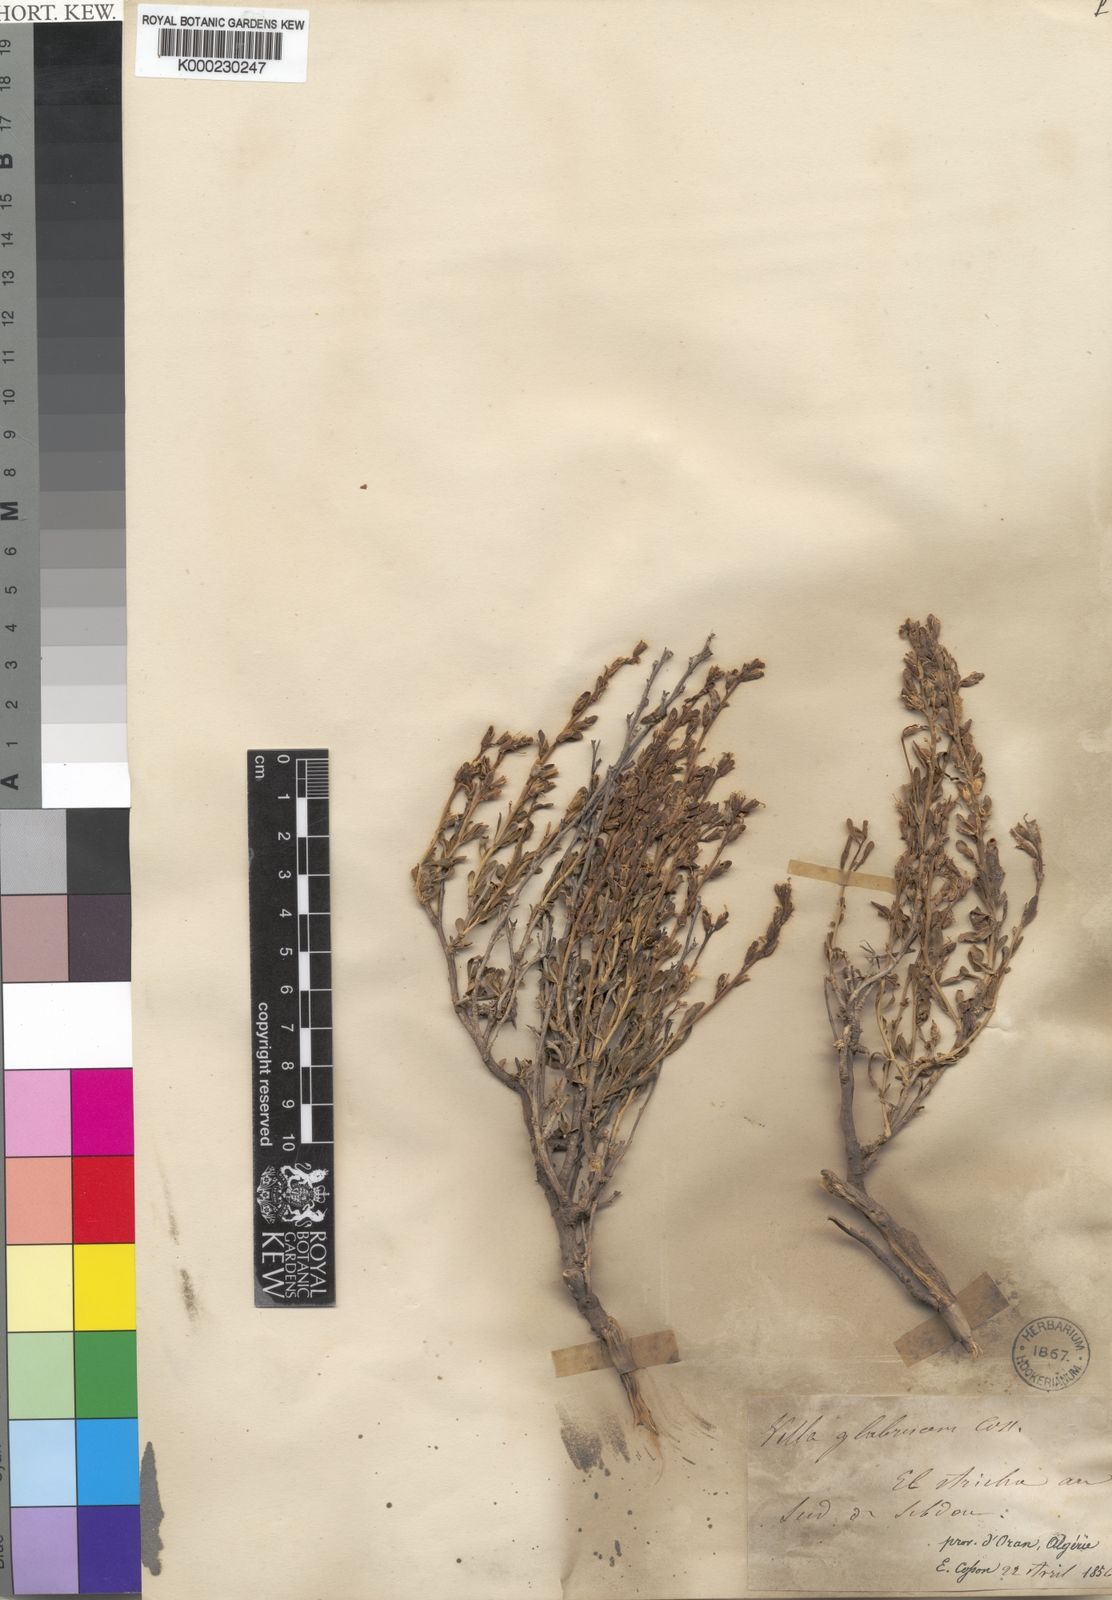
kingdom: Plantae
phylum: Tracheophyta
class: Magnoliopsida
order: Brassicales
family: Brassicaceae
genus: Vella
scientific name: Vella pseudocytisus
